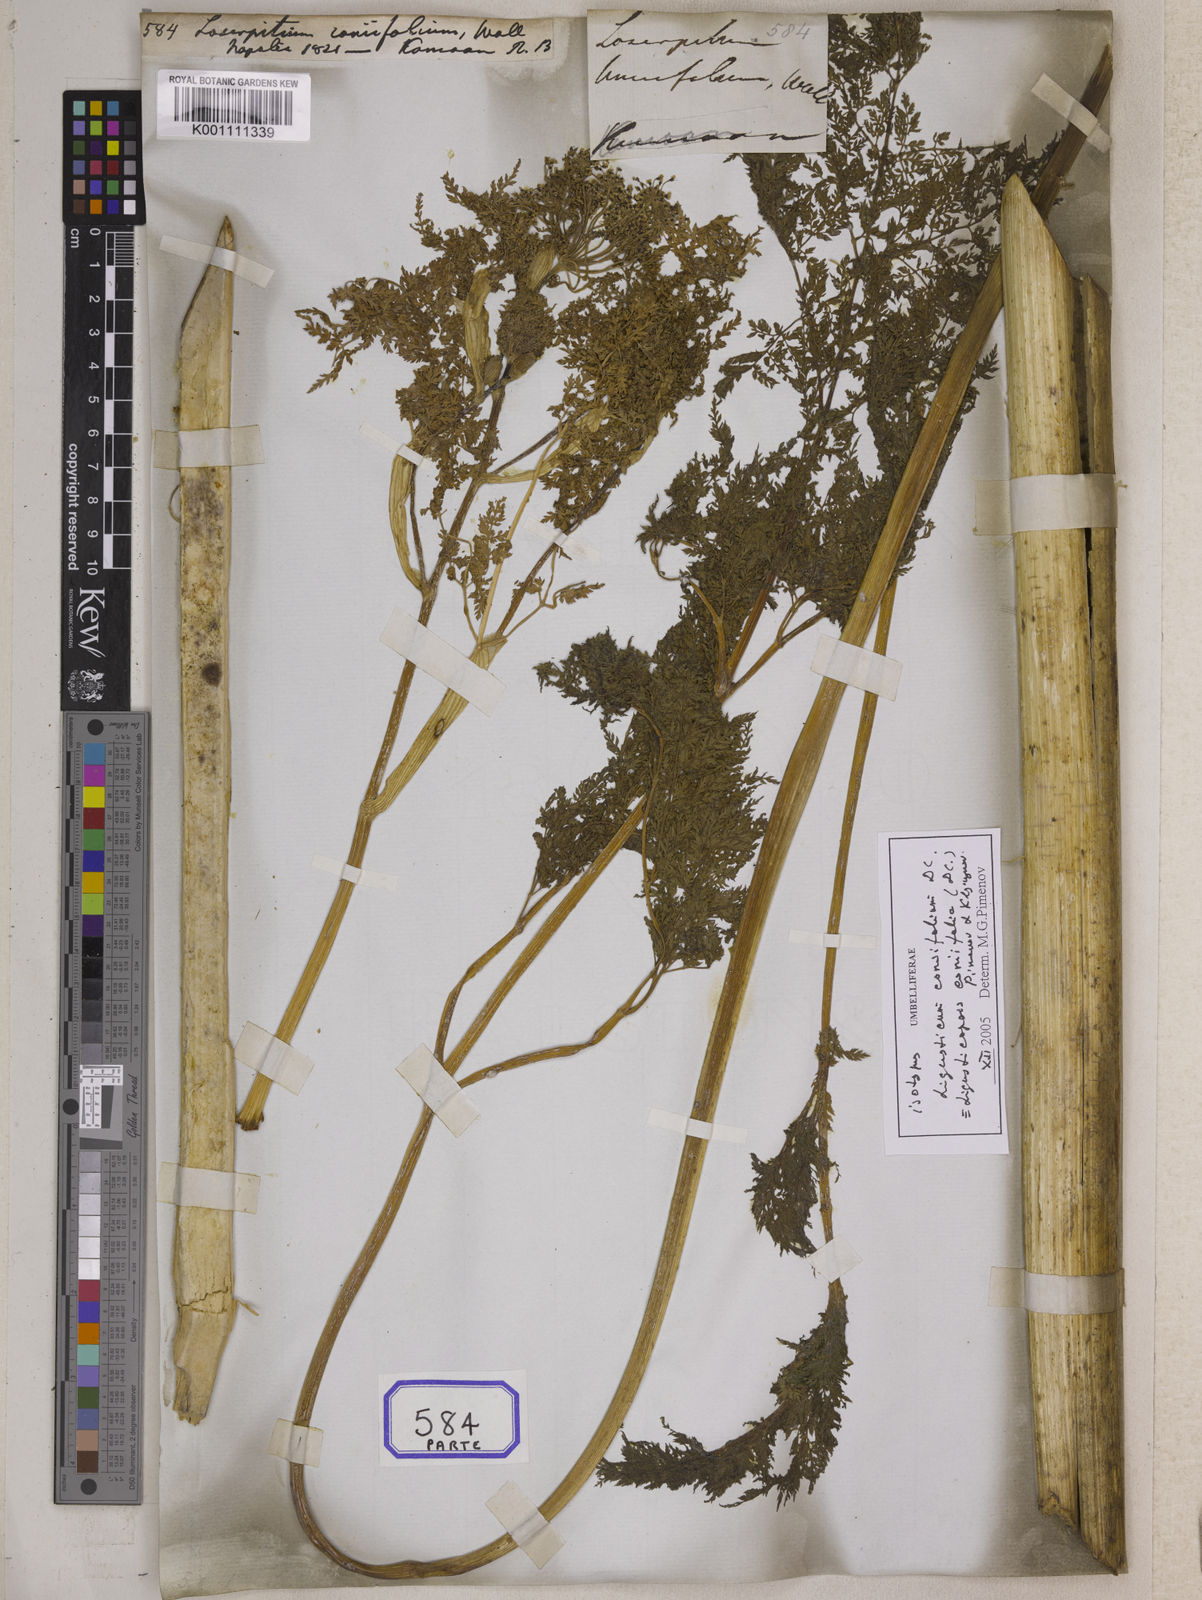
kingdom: Plantae
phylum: Tracheophyta
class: Magnoliopsida
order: Apiales
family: Apiaceae
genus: Ligusticopsis
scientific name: Ligusticopsis wallichiana
